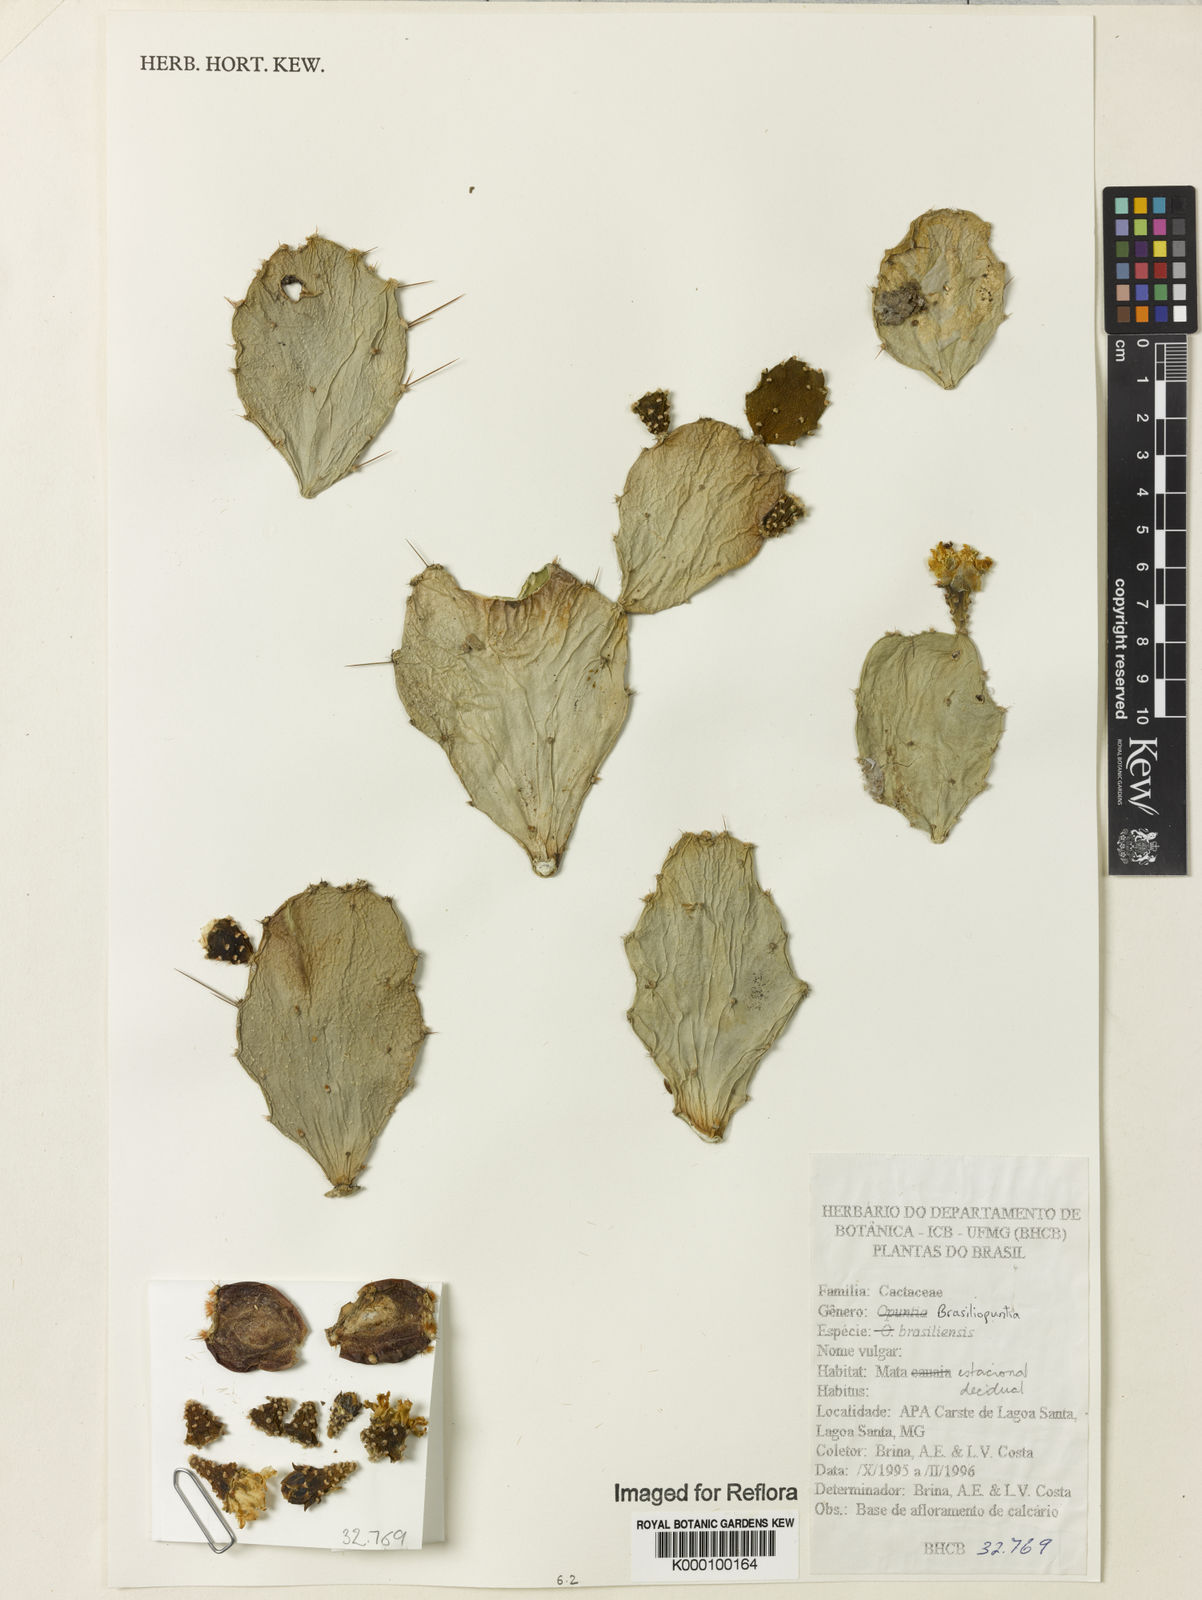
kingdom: Plantae
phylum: Tracheophyta
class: Magnoliopsida
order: Caryophyllales
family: Cactaceae
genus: Brasiliopuntia
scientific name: Brasiliopuntia brasiliensis
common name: Brazilian pricklypear
